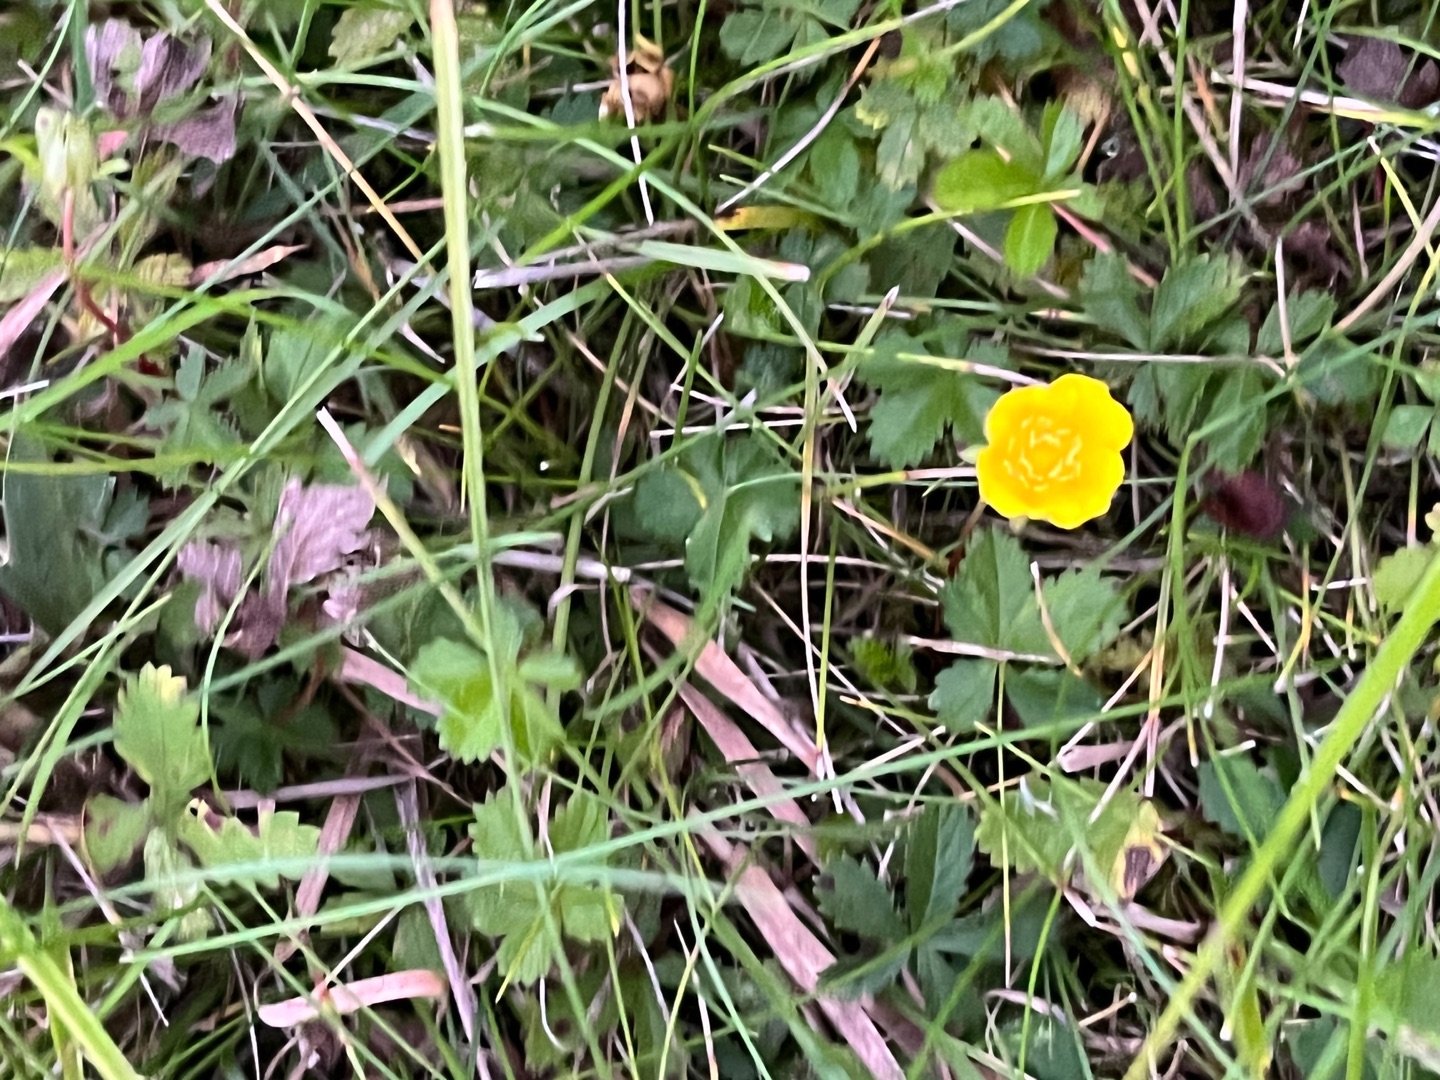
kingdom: Plantae
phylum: Tracheophyta
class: Magnoliopsida
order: Rosales
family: Rosaceae
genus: Potentilla
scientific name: Potentilla reptans
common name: Krybende potentil
